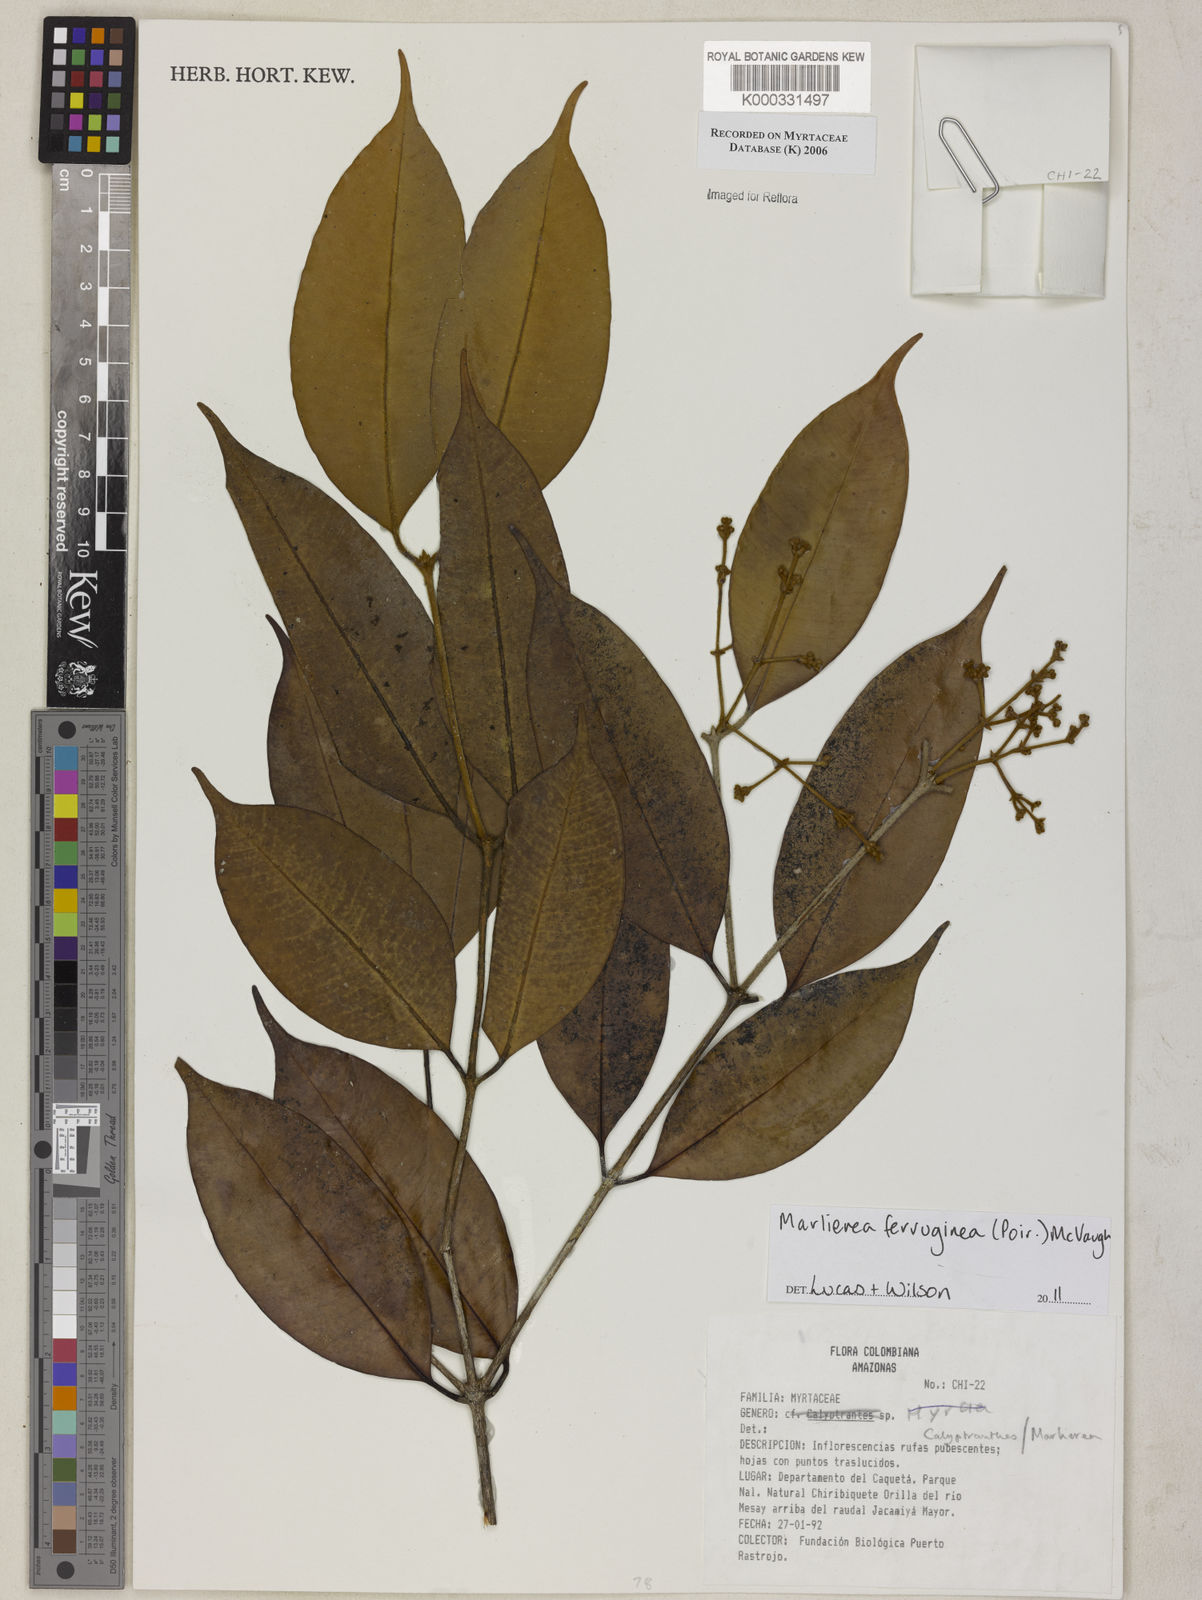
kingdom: Plantae
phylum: Tracheophyta
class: Magnoliopsida
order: Myrtales
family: Myrtaceae
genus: Calyptranthes
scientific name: Calyptranthes
